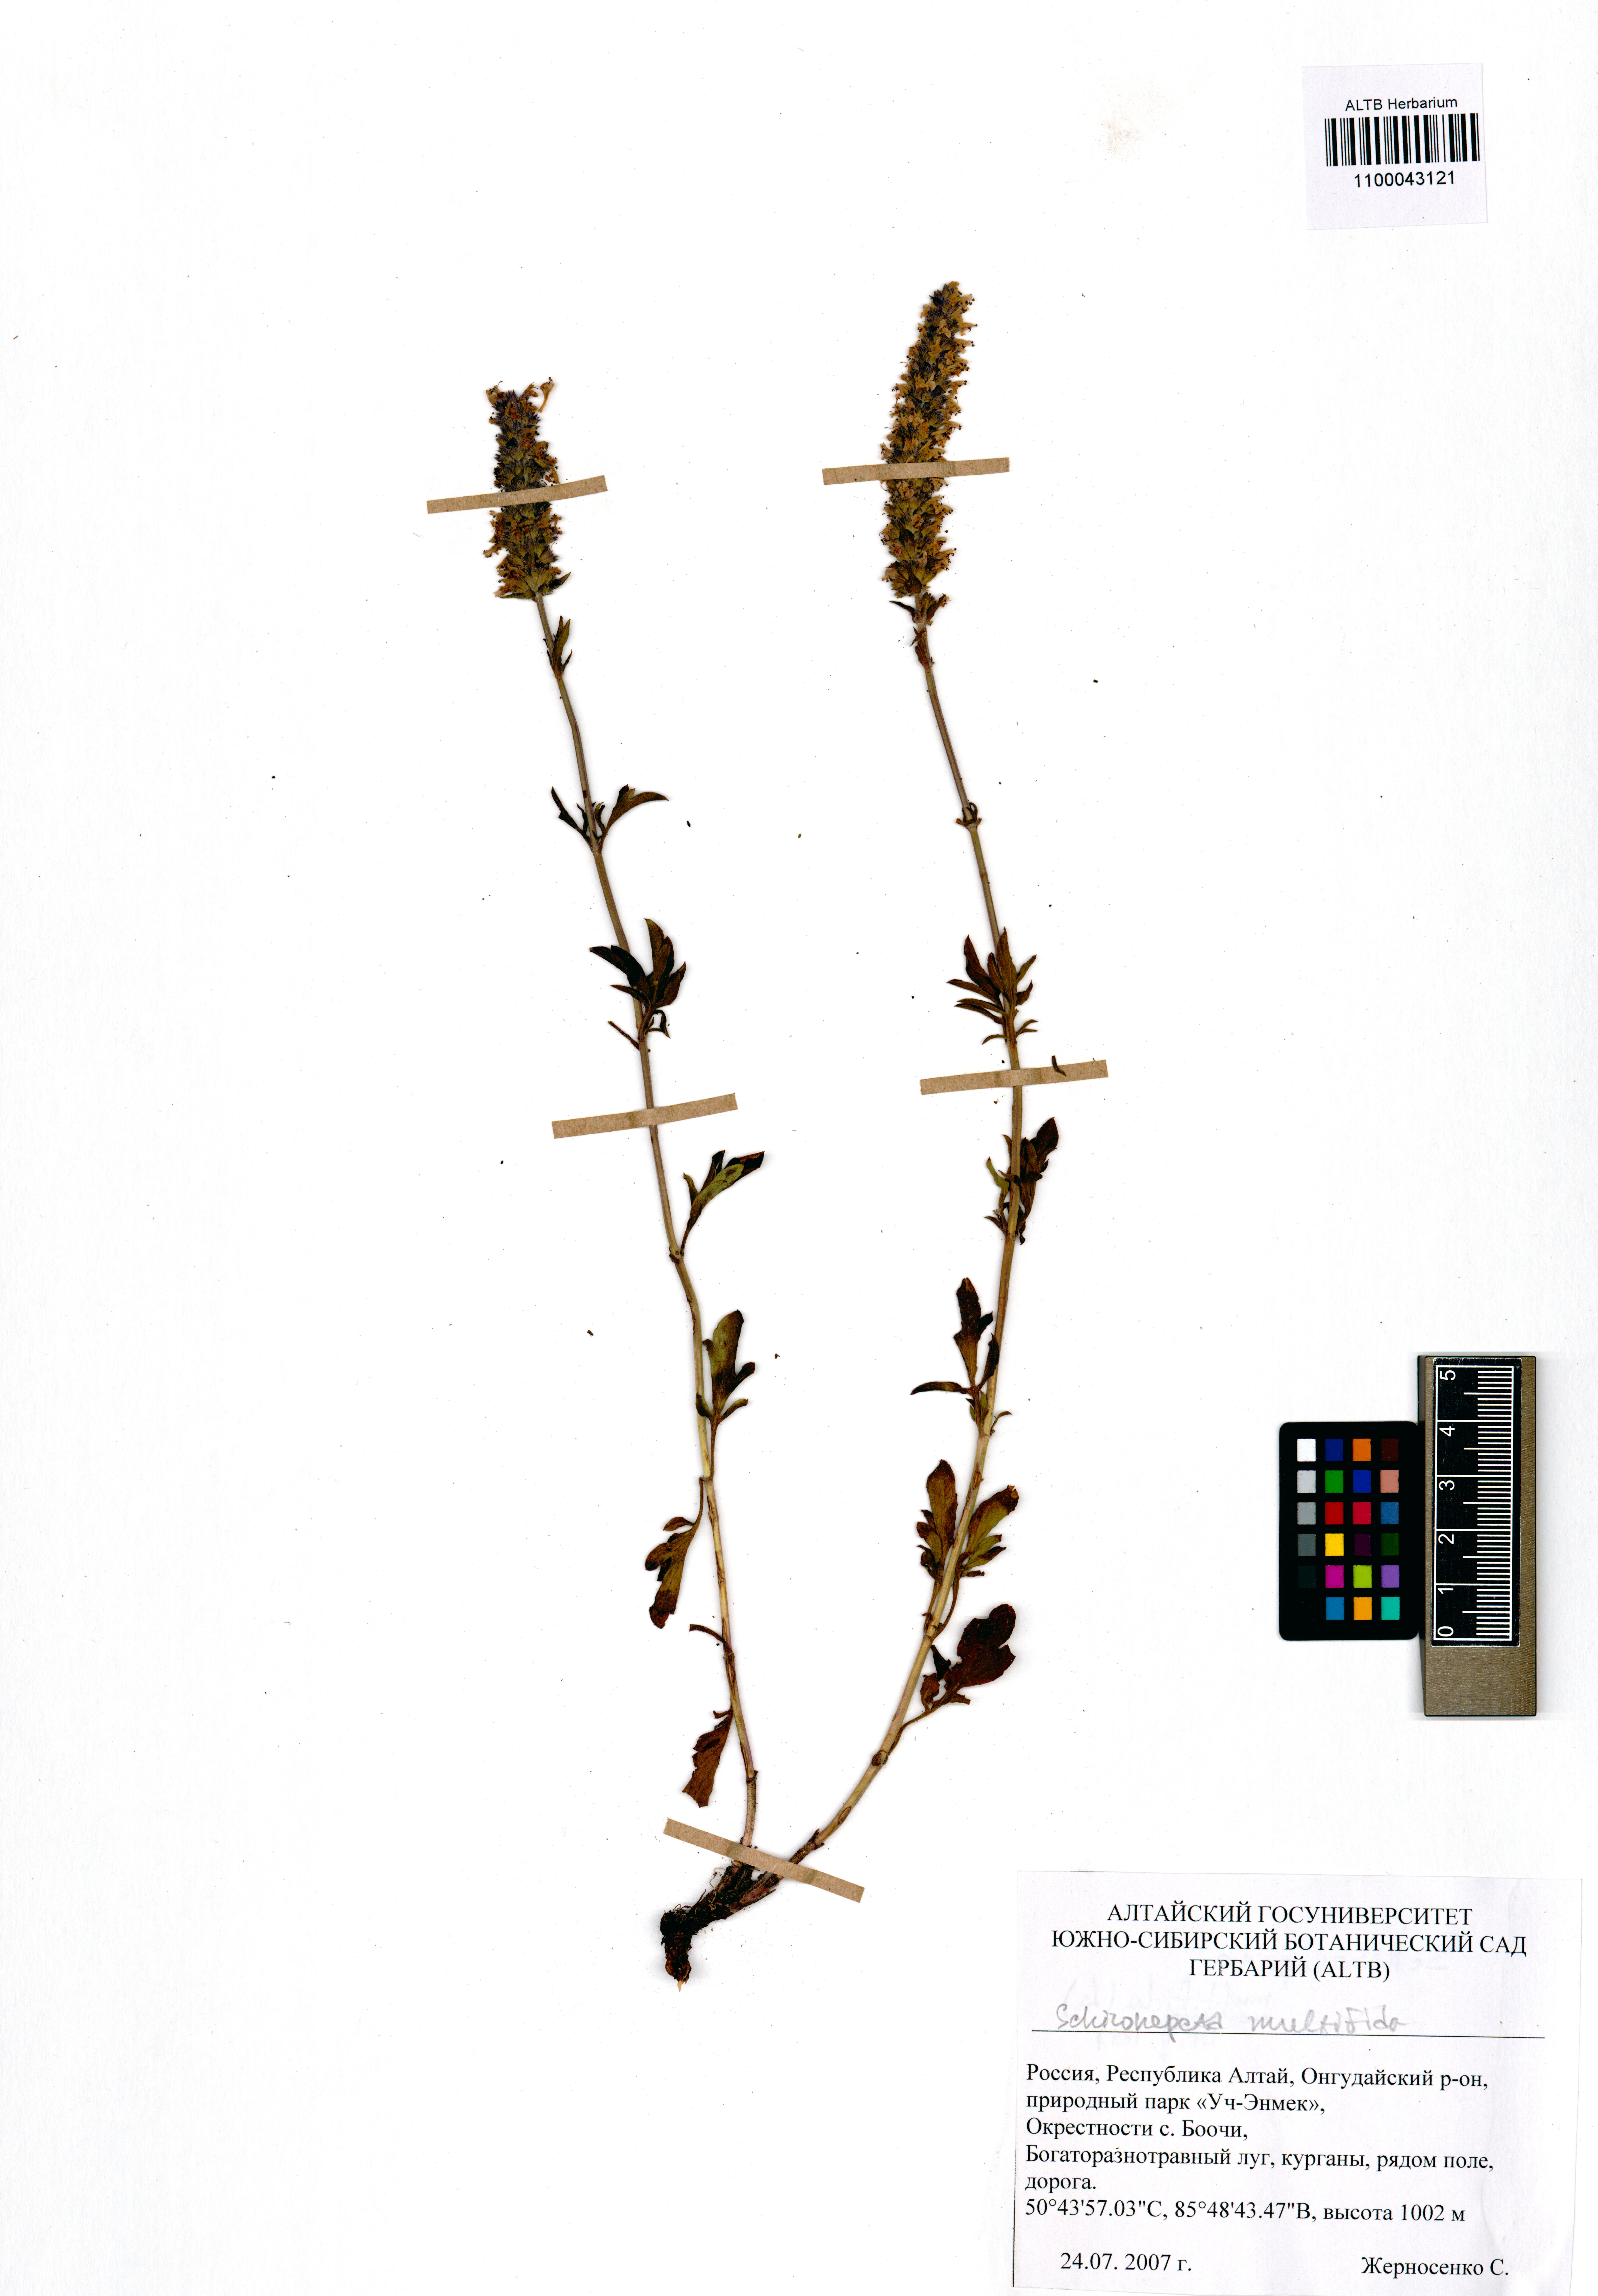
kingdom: Plantae
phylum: Tracheophyta
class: Magnoliopsida
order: Lamiales
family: Lamiaceae
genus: Nepeta
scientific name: Nepeta multifida
